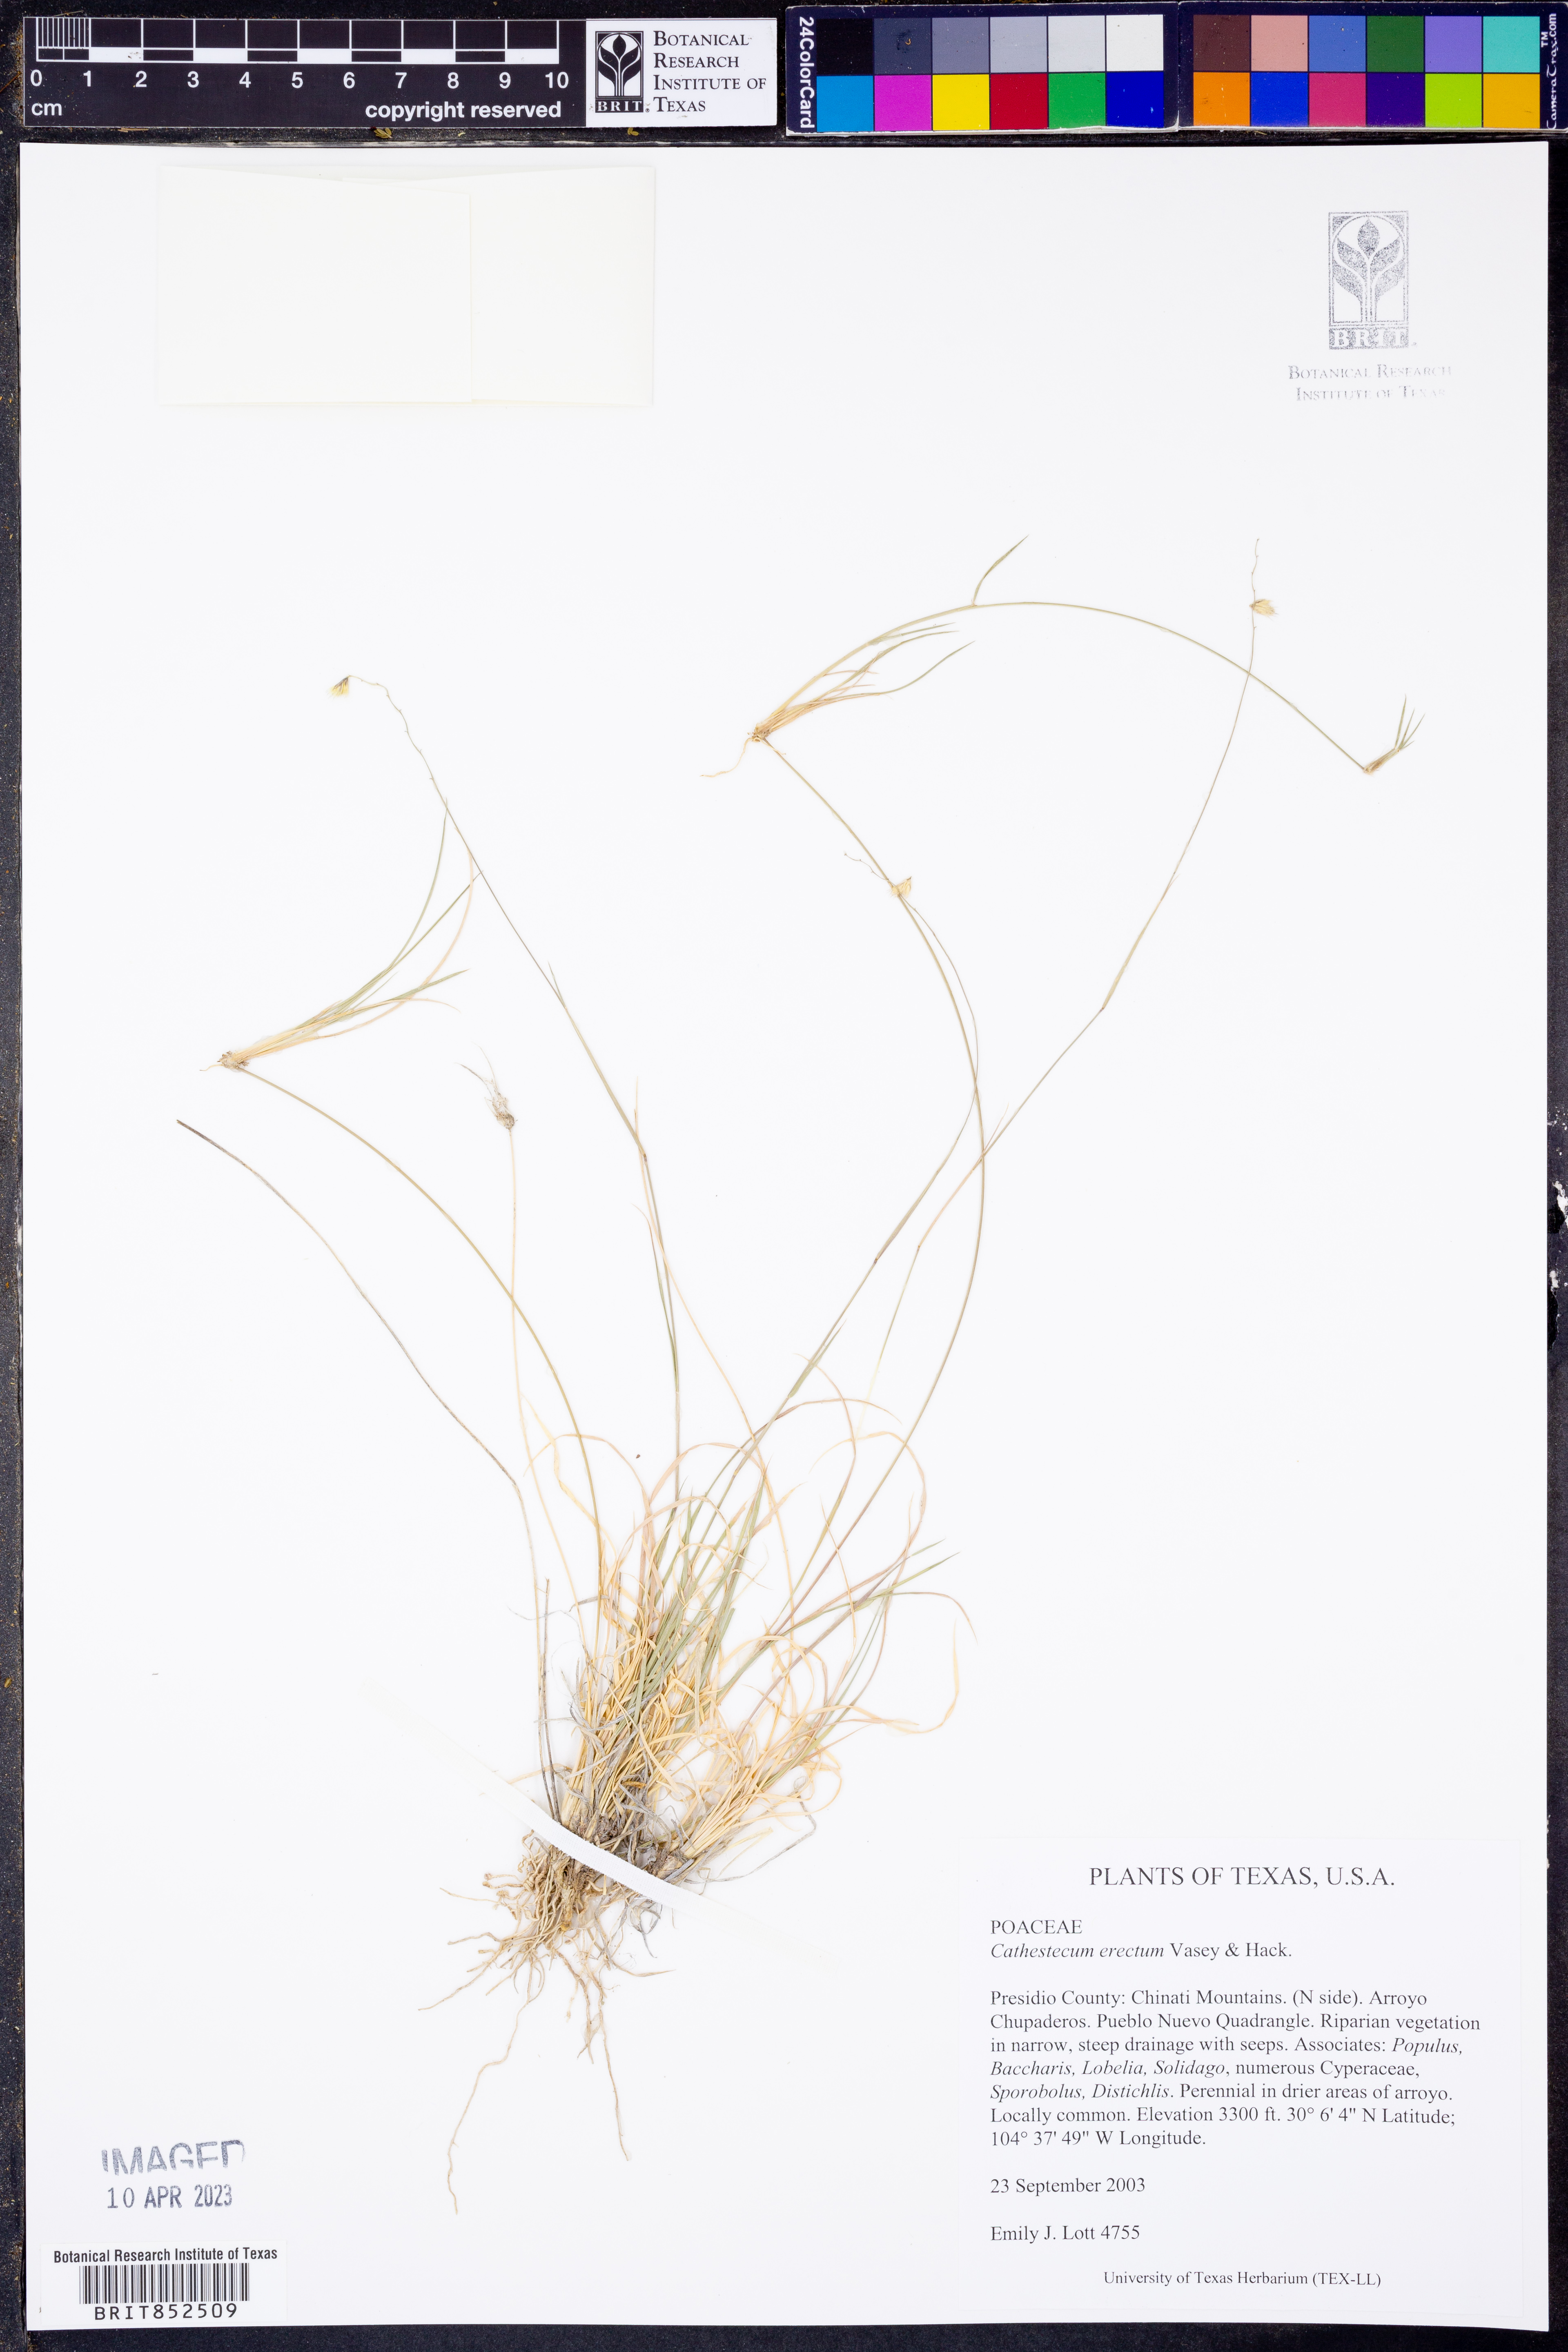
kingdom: Plantae
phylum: Tracheophyta
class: Liliopsida
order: Poales
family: Poaceae
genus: Bouteloua
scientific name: Bouteloua erecta
